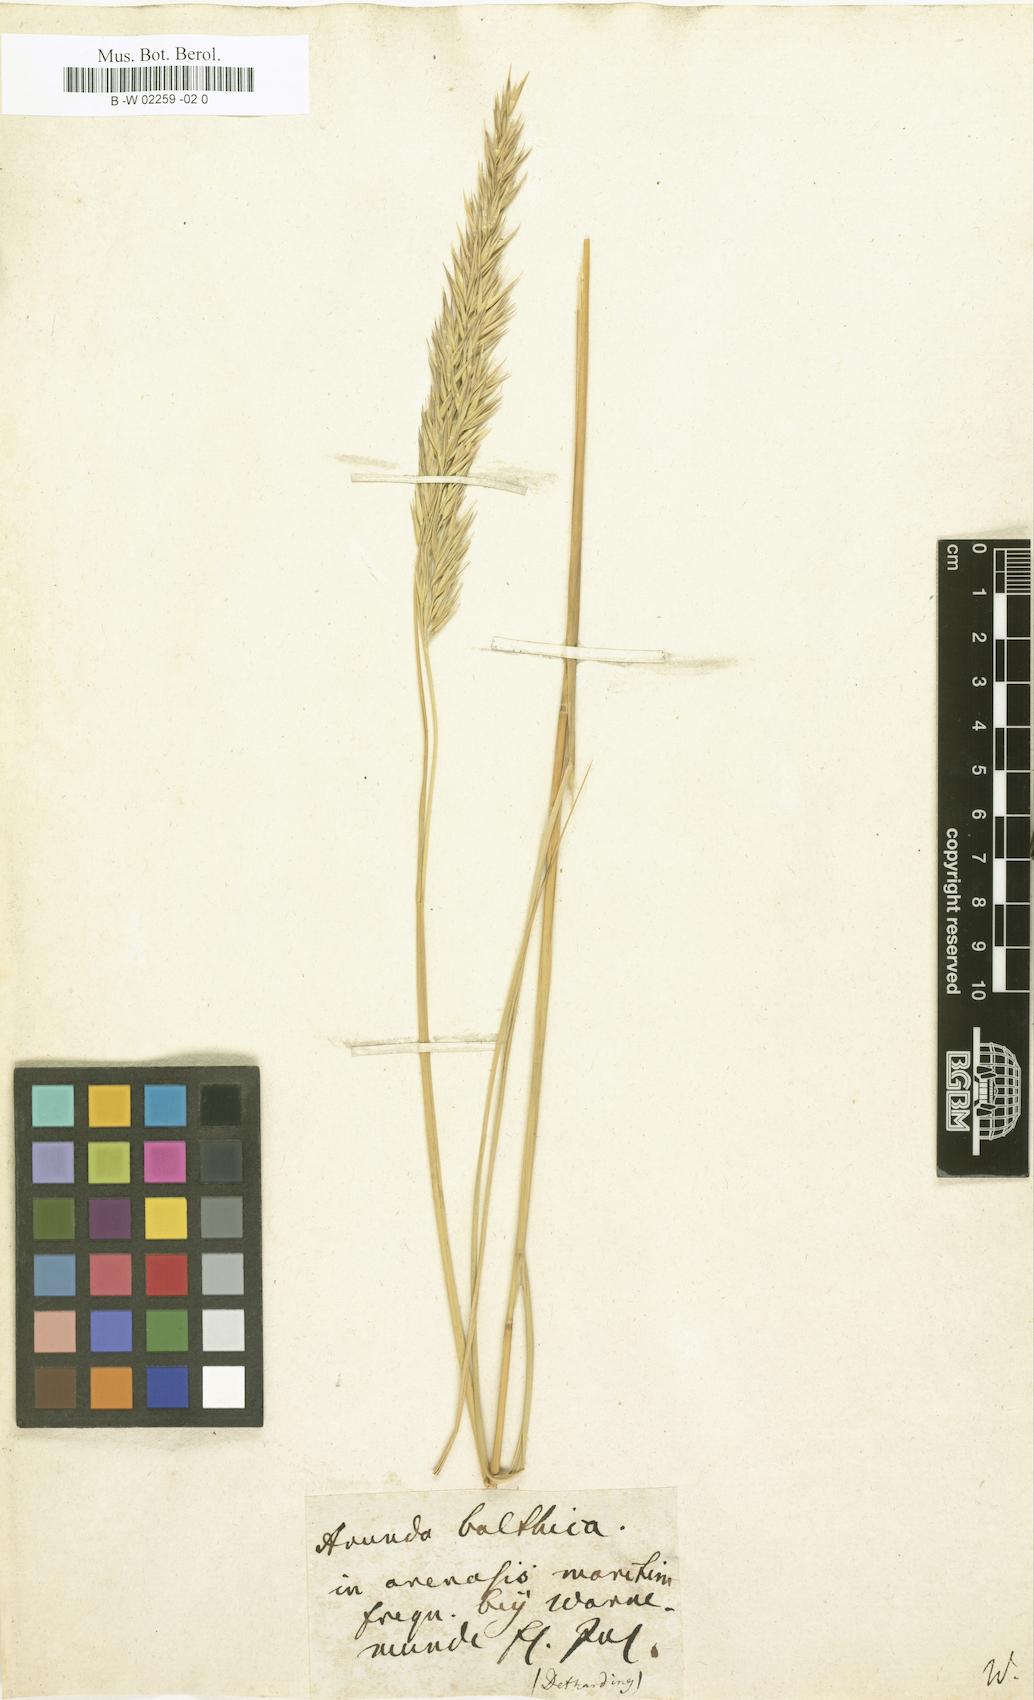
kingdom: Plantae
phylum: Tracheophyta
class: Liliopsida
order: Poales
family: Poaceae
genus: Calamagrostis
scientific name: Calamagrostis baltica
